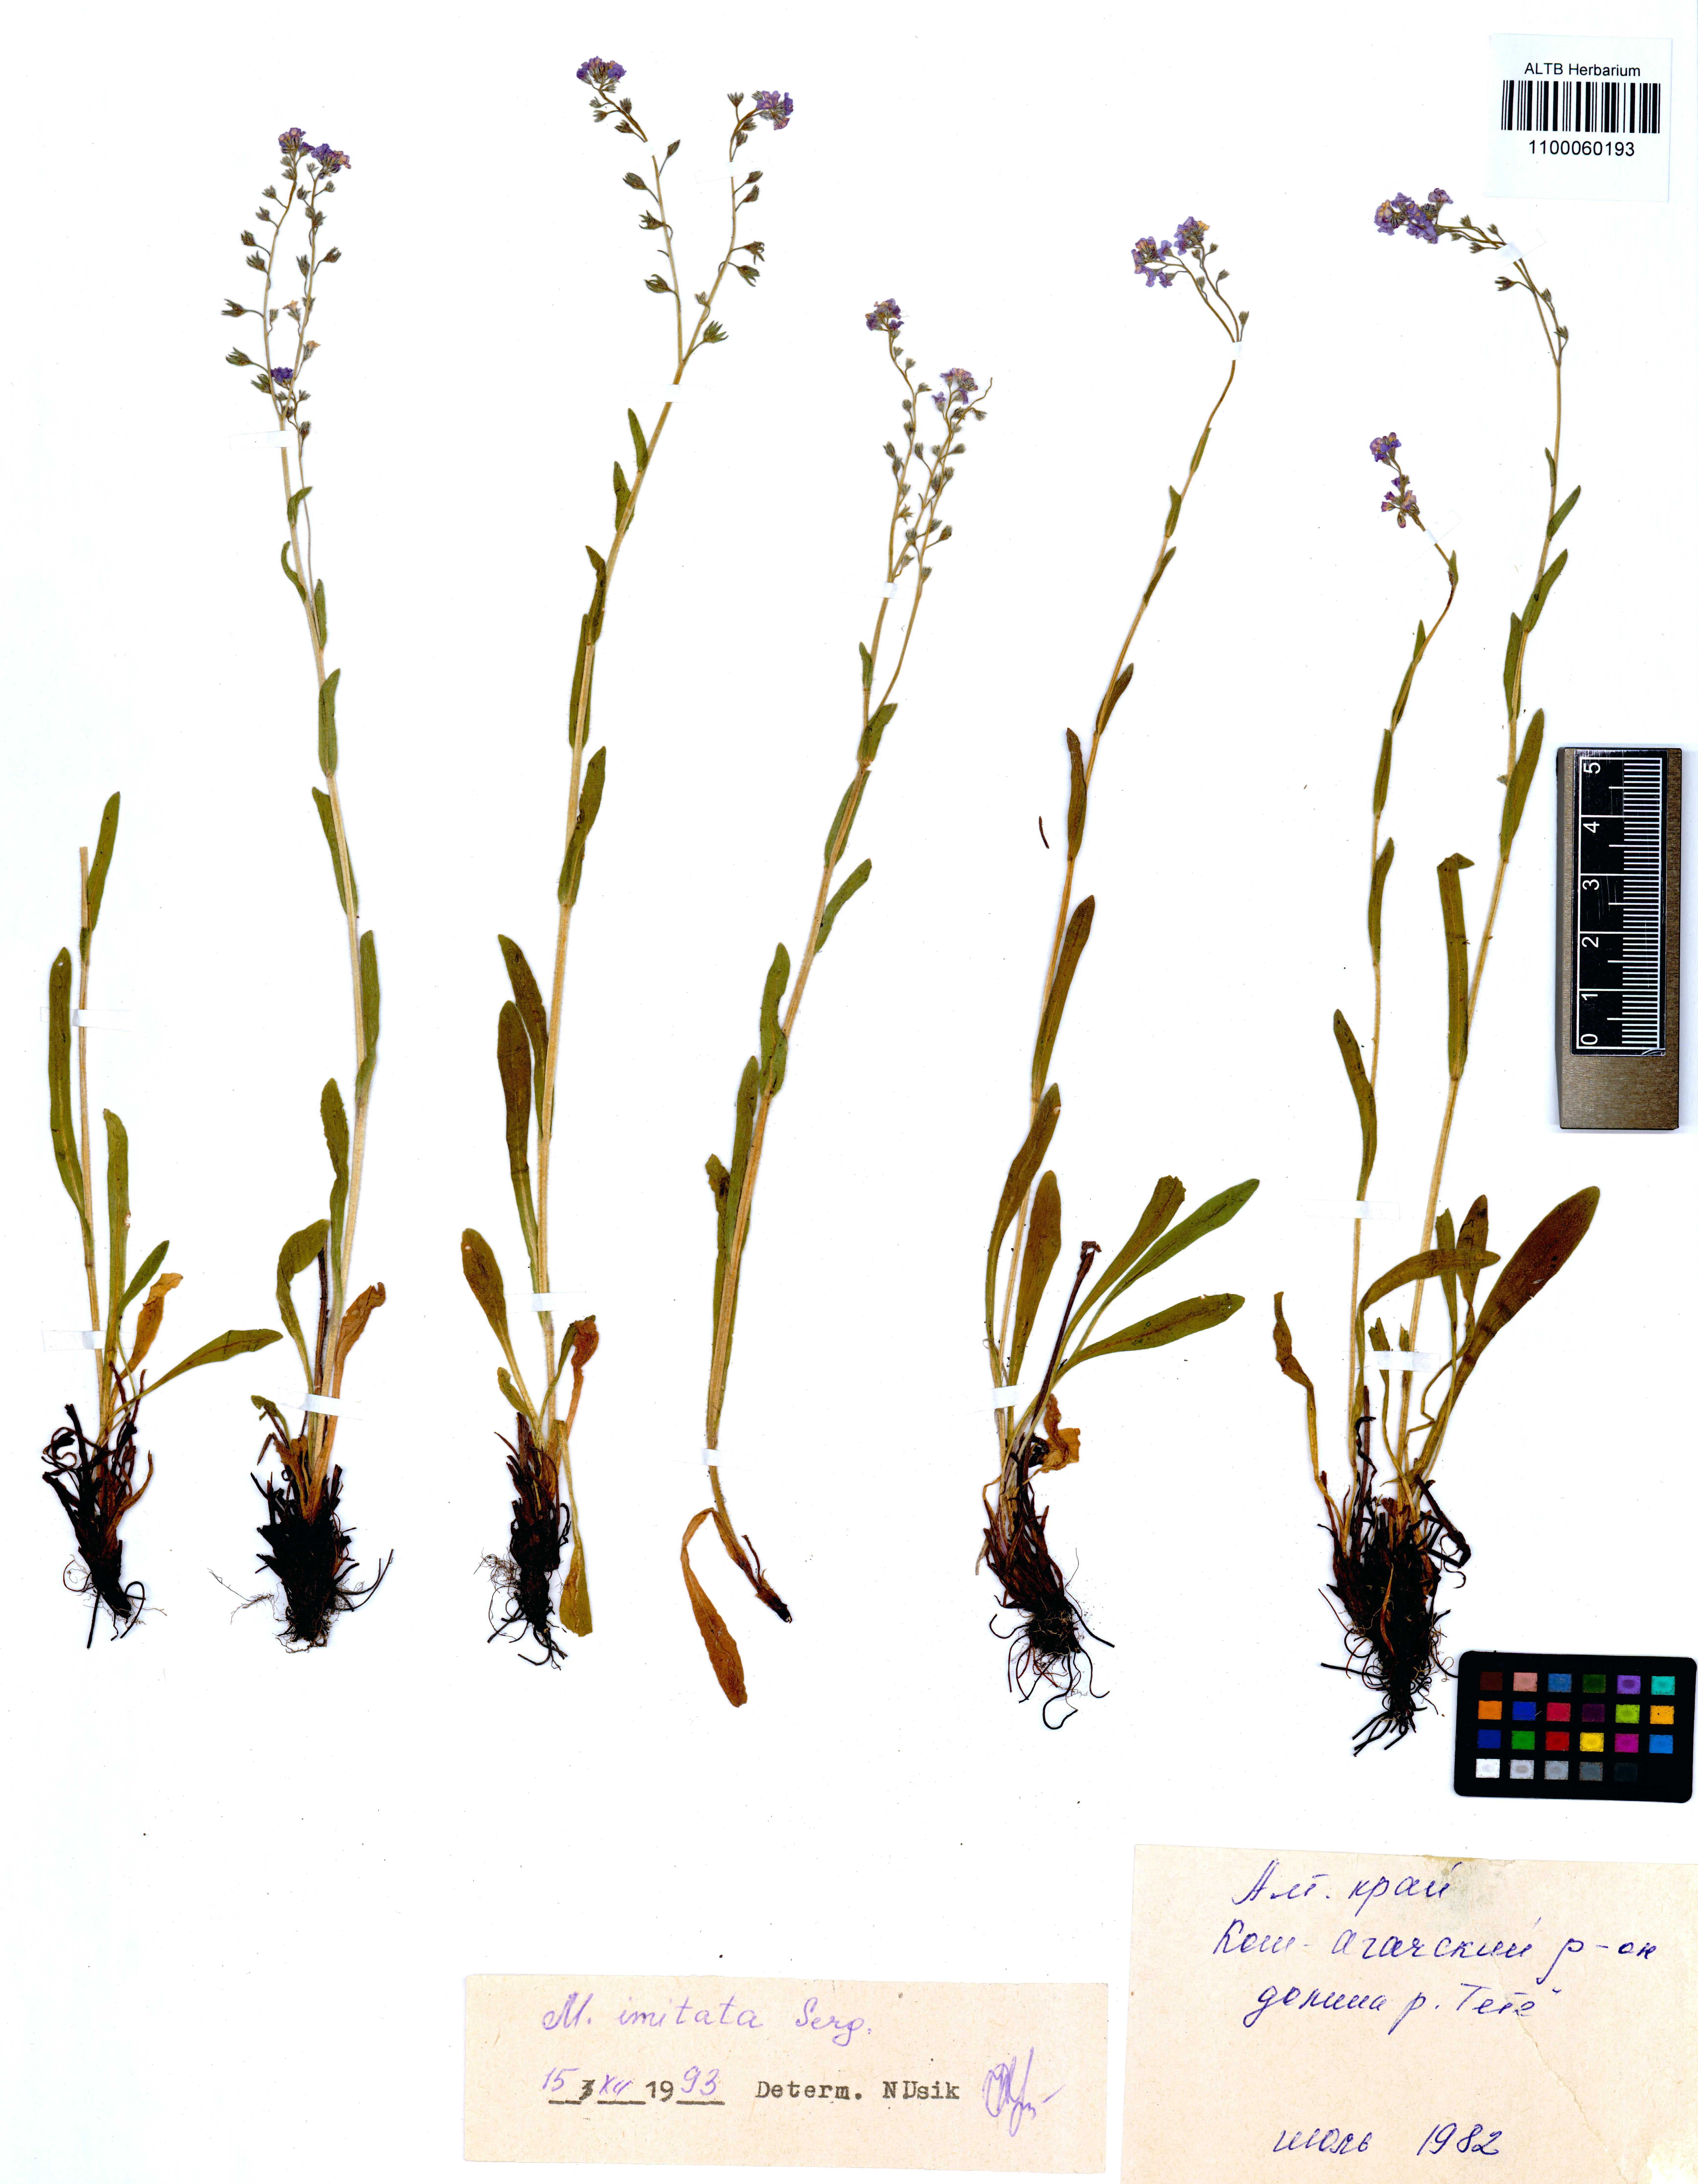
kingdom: Plantae
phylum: Tracheophyta
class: Magnoliopsida
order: Boraginales
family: Boraginaceae
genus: Myosotis
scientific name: Myosotis imitata
